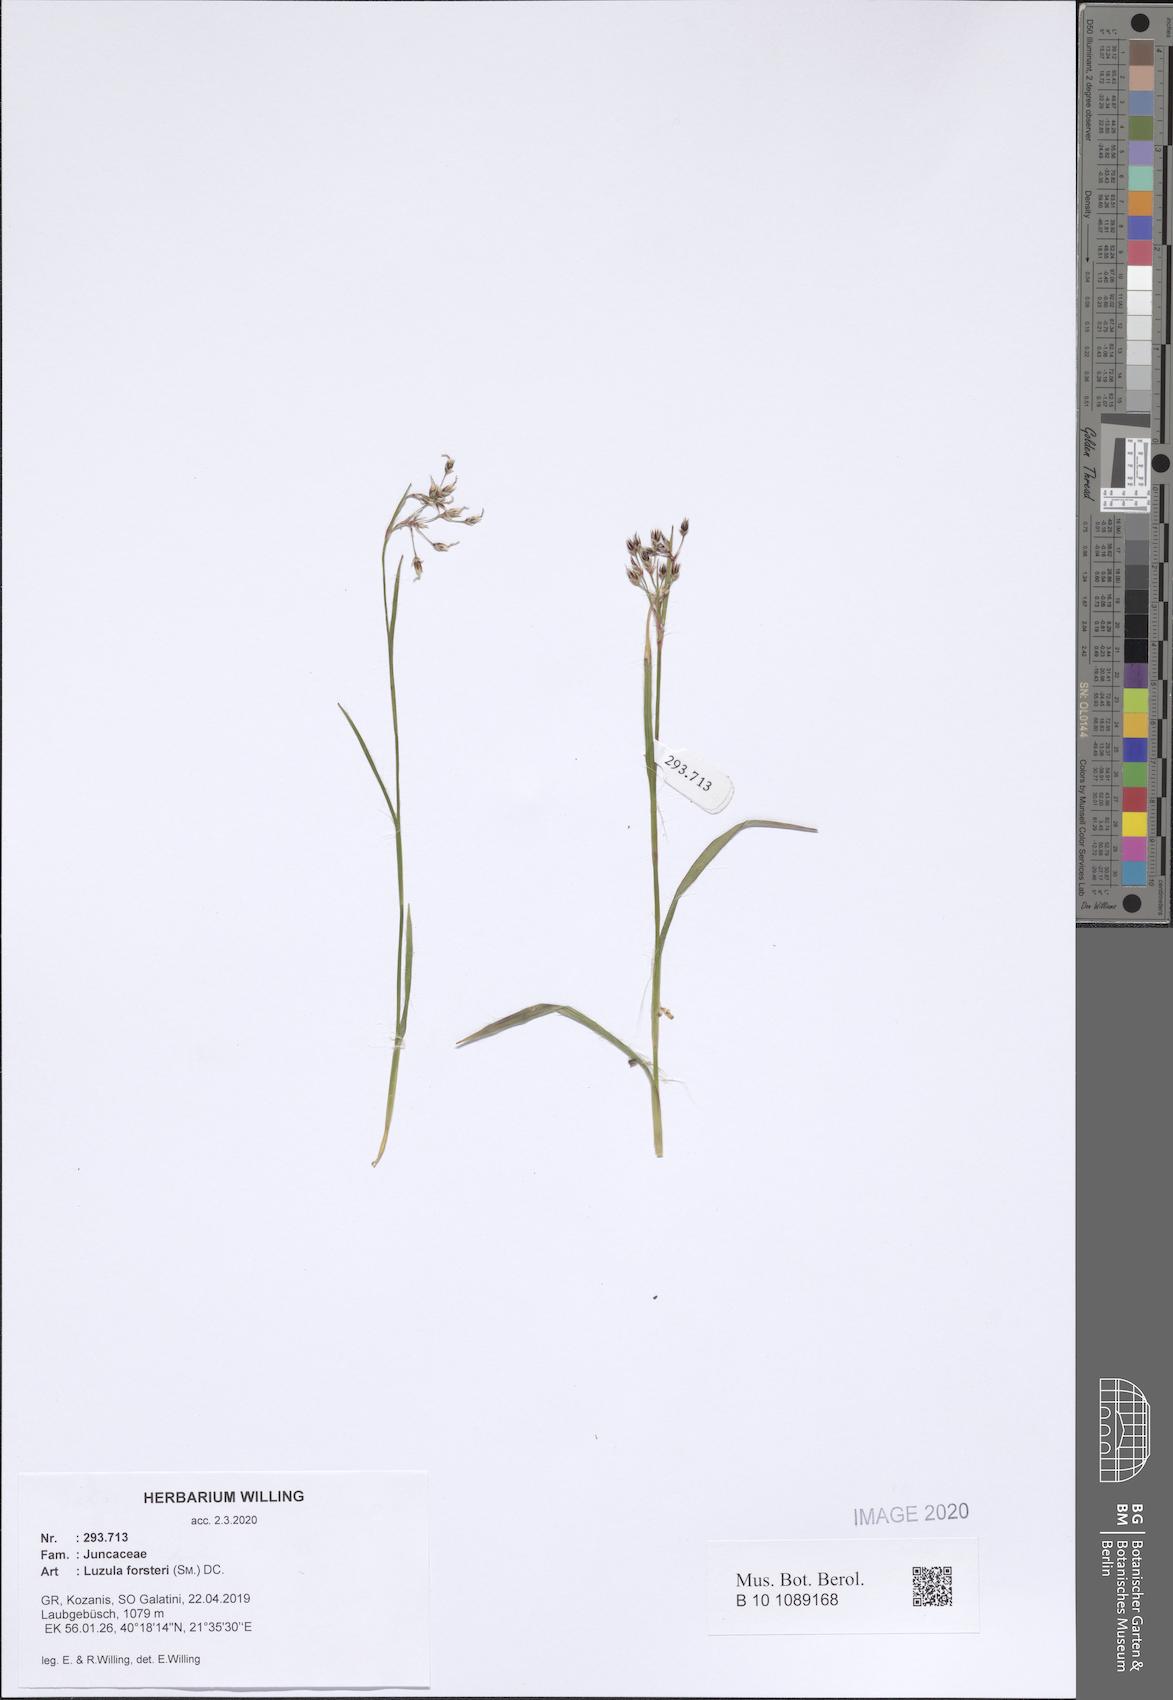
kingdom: Plantae
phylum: Tracheophyta
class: Liliopsida
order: Poales
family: Juncaceae
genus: Luzula
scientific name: Luzula forsteri
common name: Southern wood-rush
